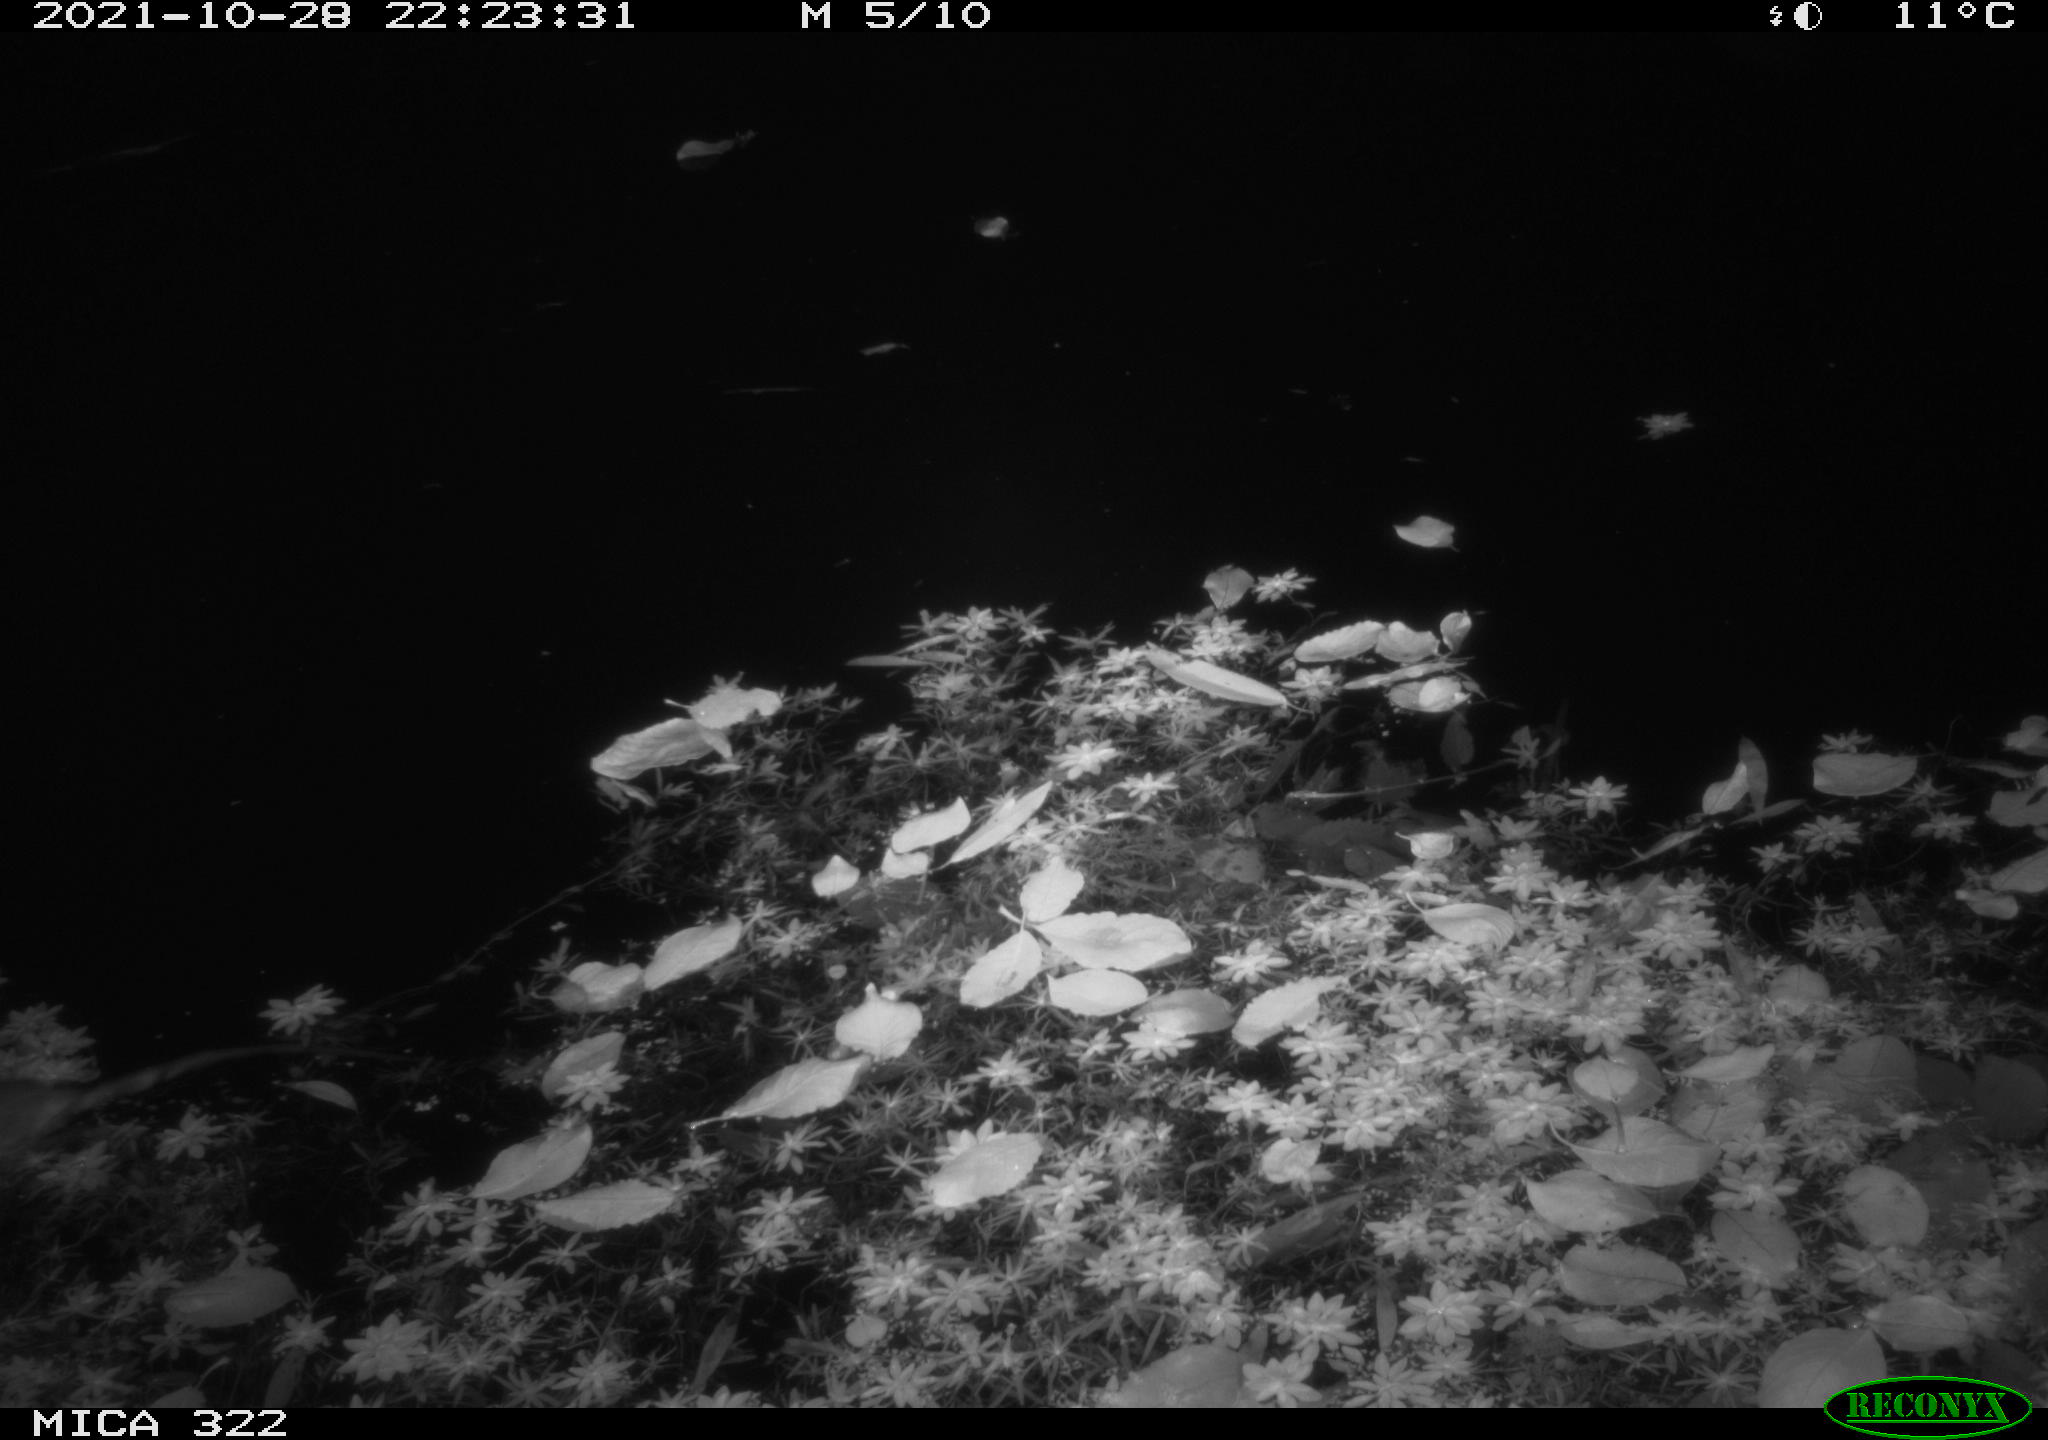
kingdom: Animalia
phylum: Chordata
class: Mammalia
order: Rodentia
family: Muridae
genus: Rattus
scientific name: Rattus norvegicus
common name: Brown rat
